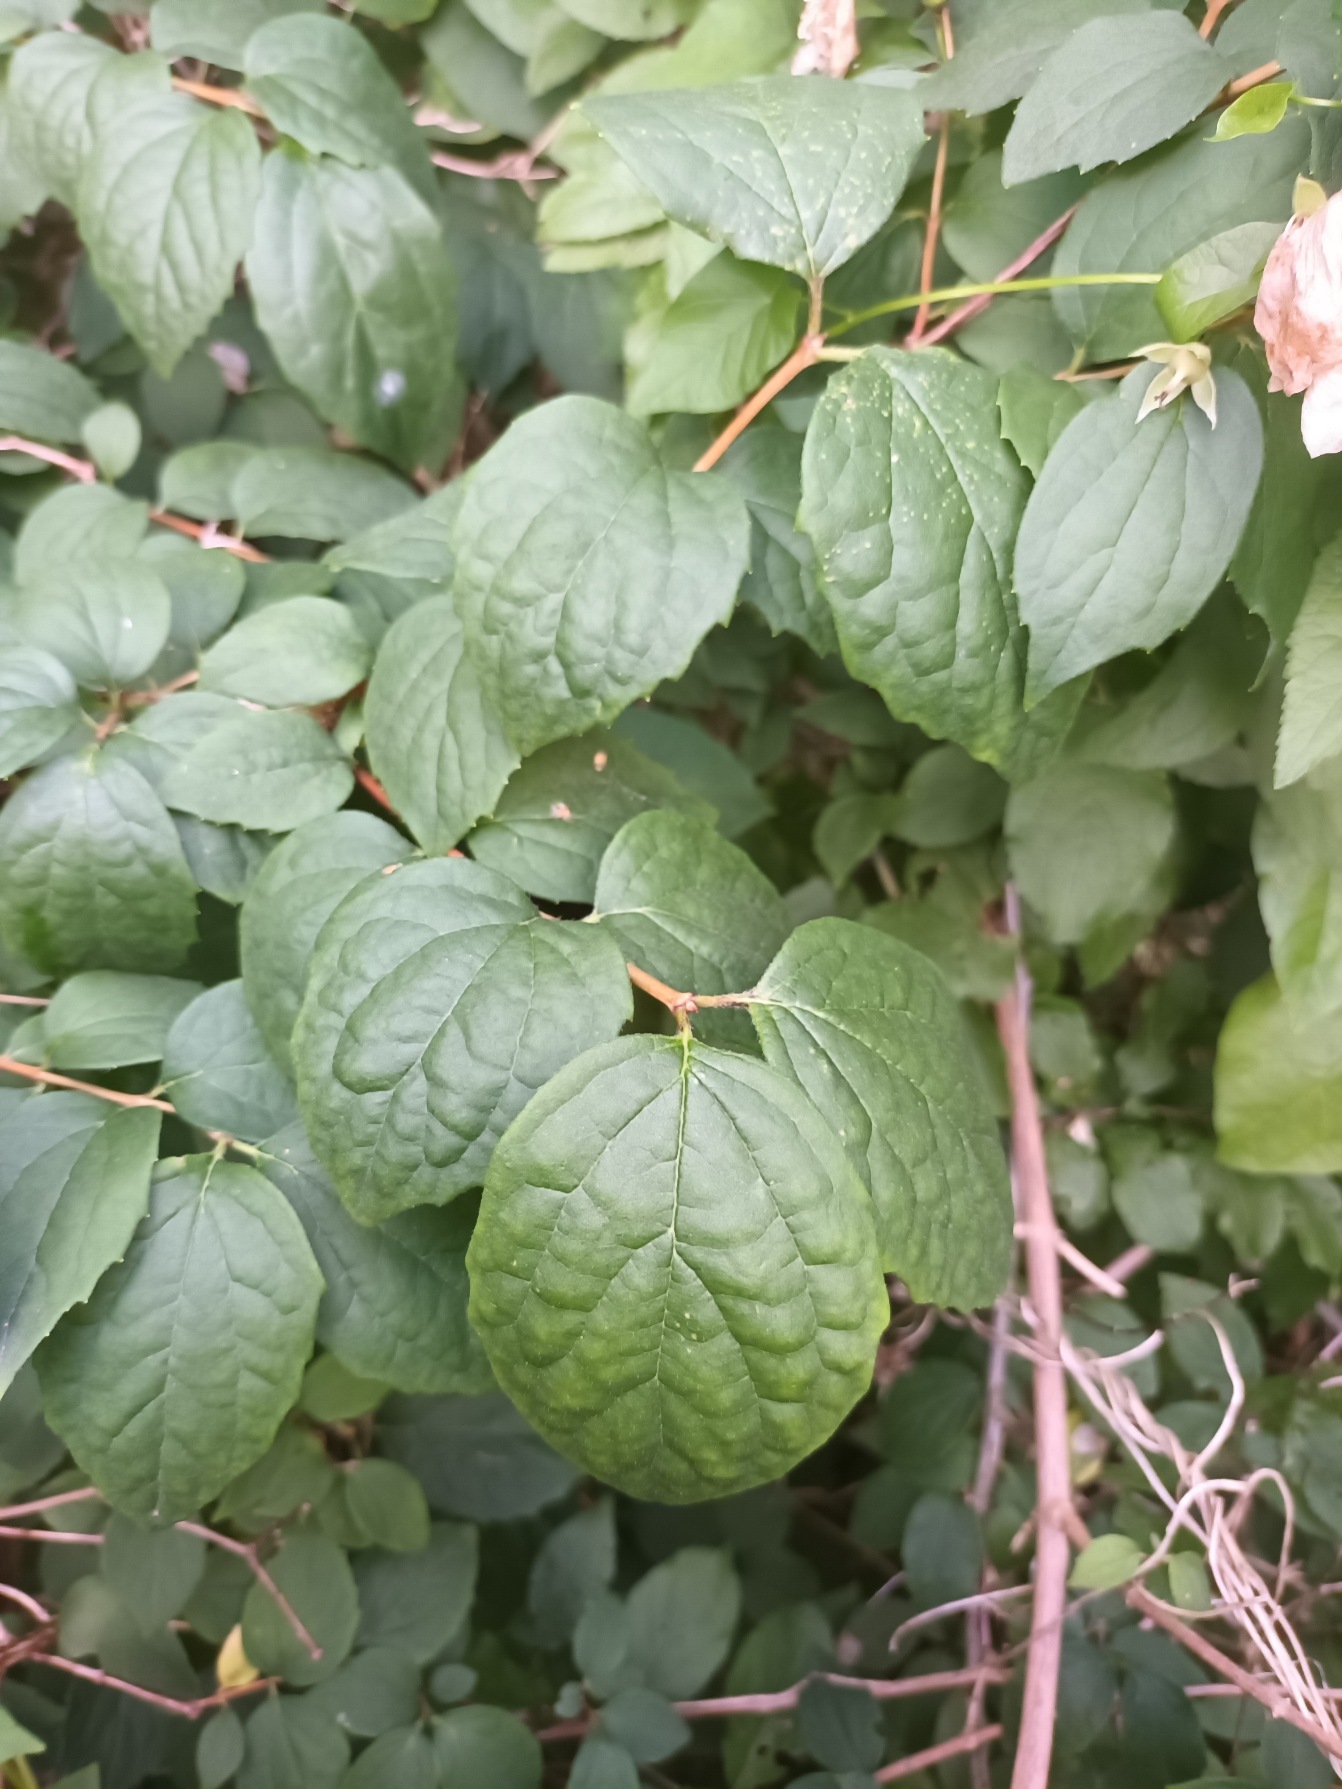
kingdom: Plantae
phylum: Tracheophyta
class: Magnoliopsida
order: Cornales
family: Hydrangeaceae
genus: Philadelphus
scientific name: Philadelphus coronarius
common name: Almindelig pibeved
